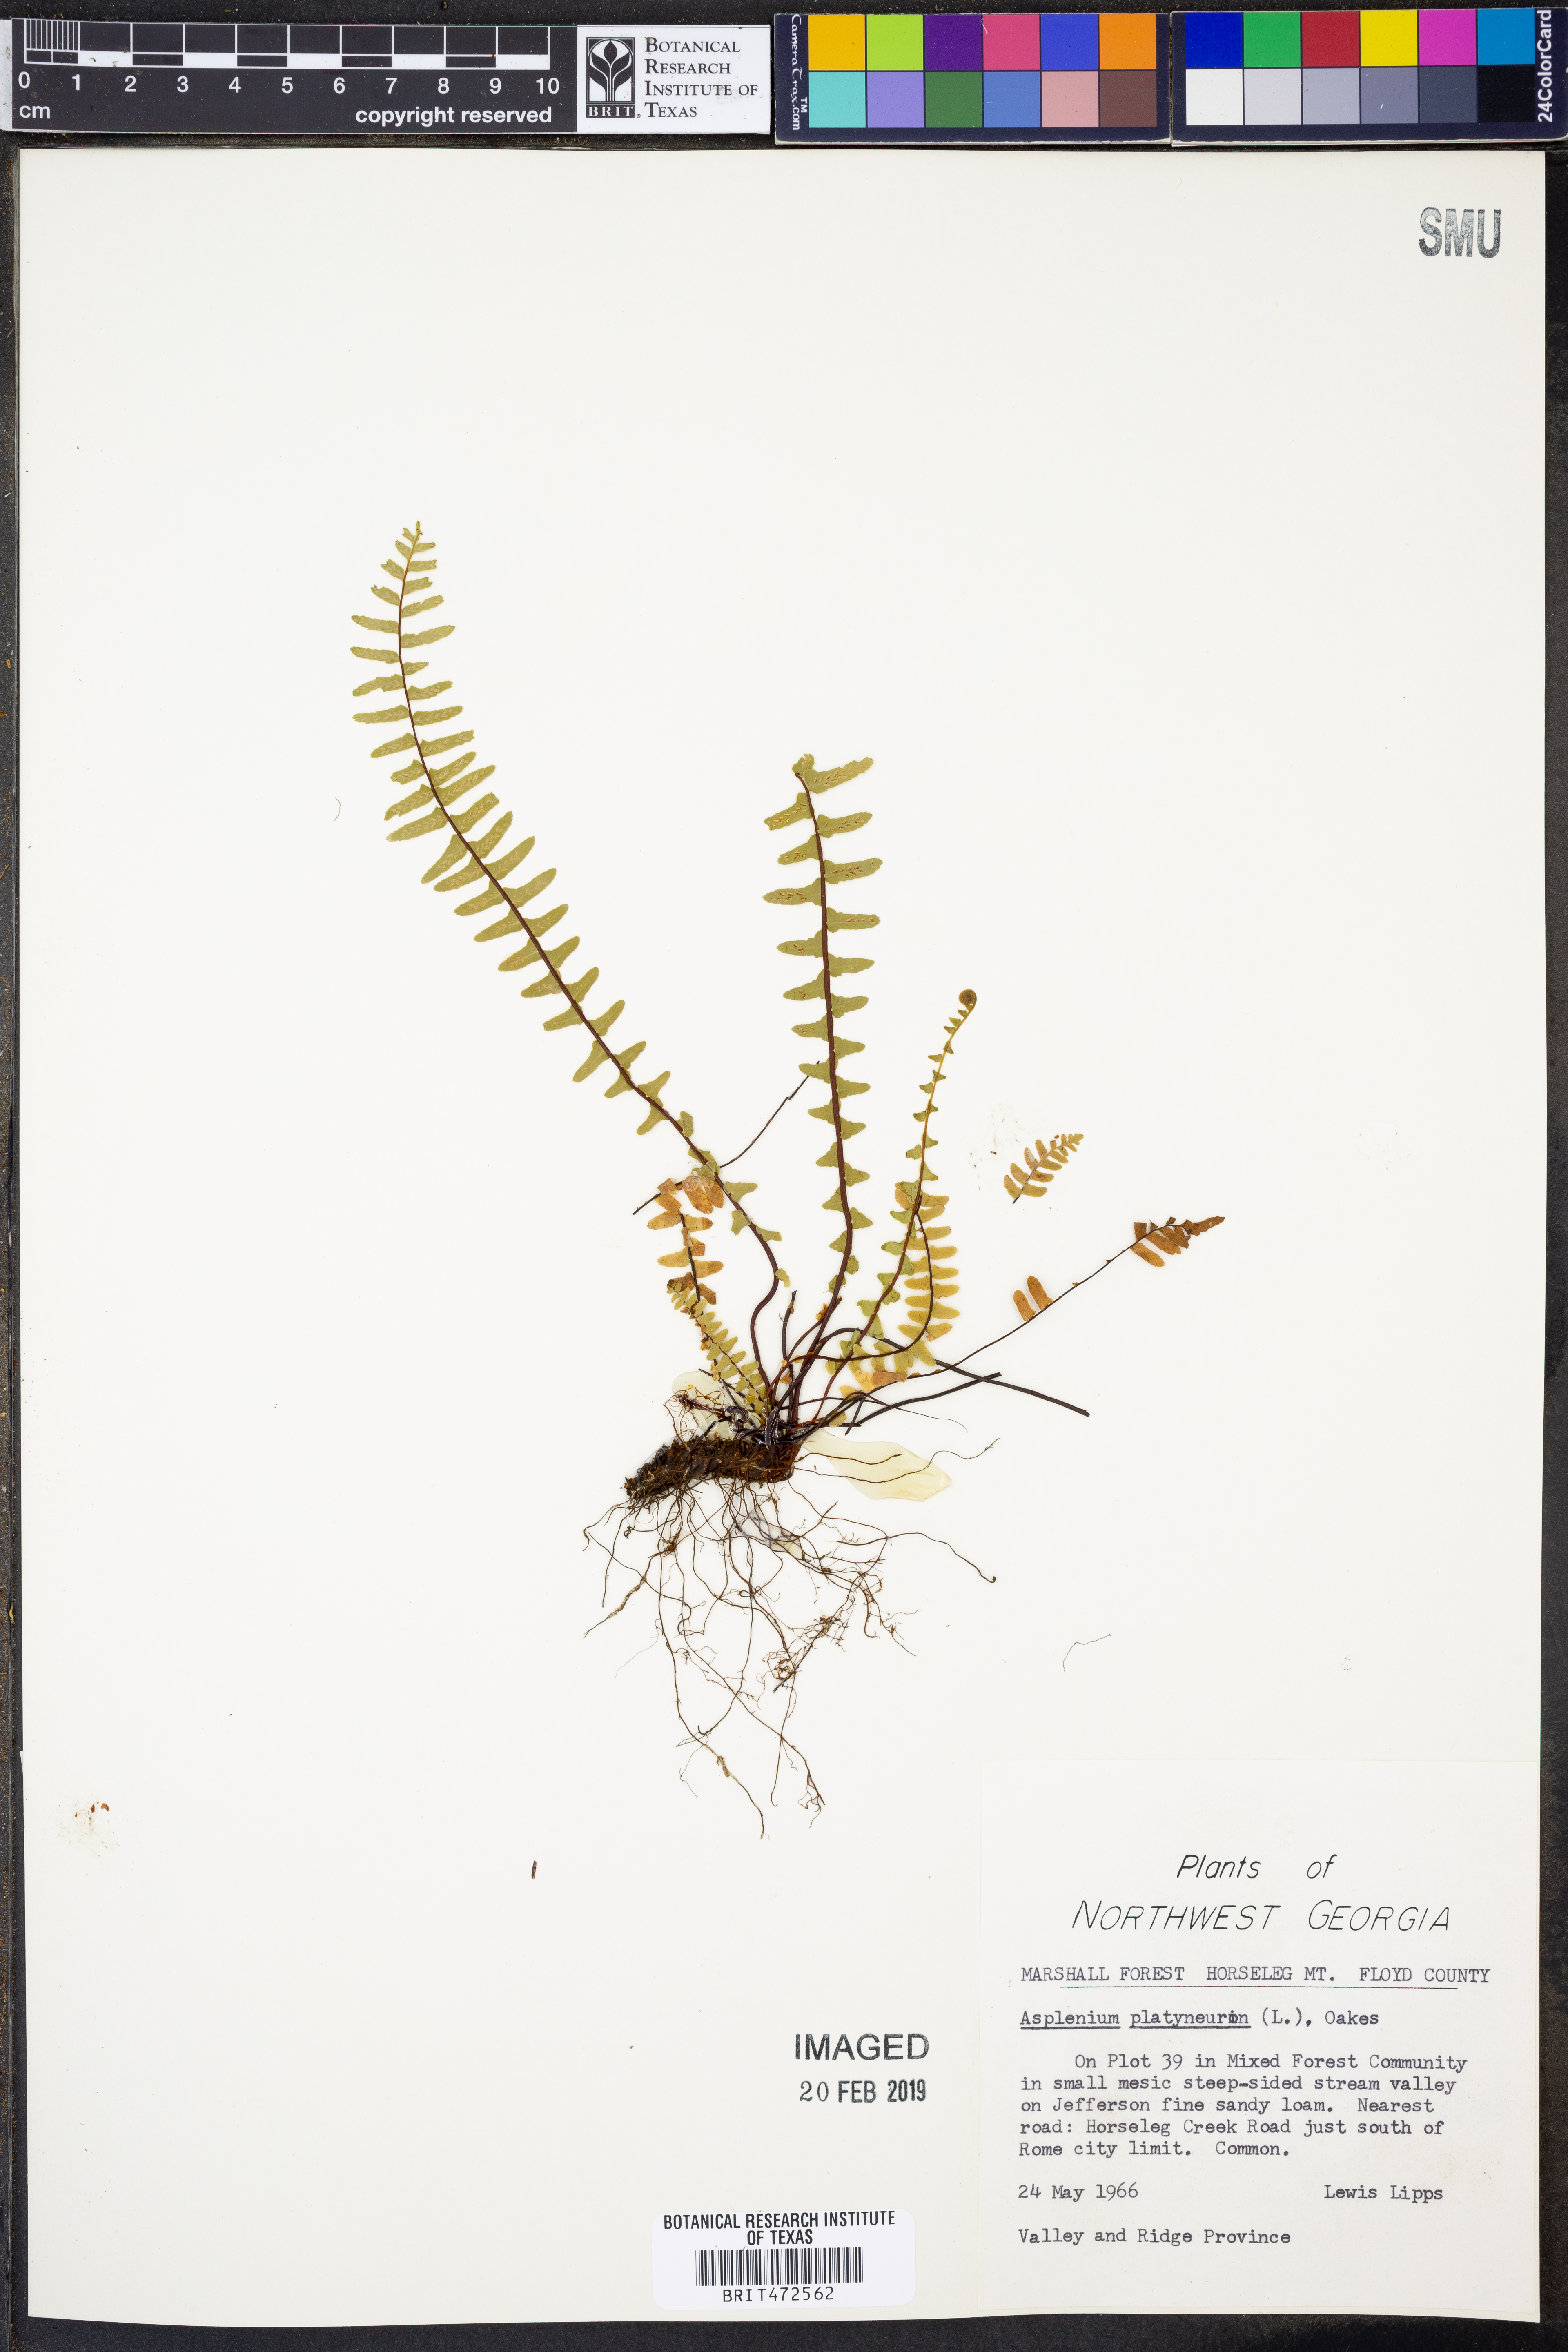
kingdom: Plantae
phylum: Tracheophyta
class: Polypodiopsida
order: Polypodiales
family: Aspleniaceae
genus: Asplenium
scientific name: Asplenium platyneuron
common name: Ebony spleenwort
